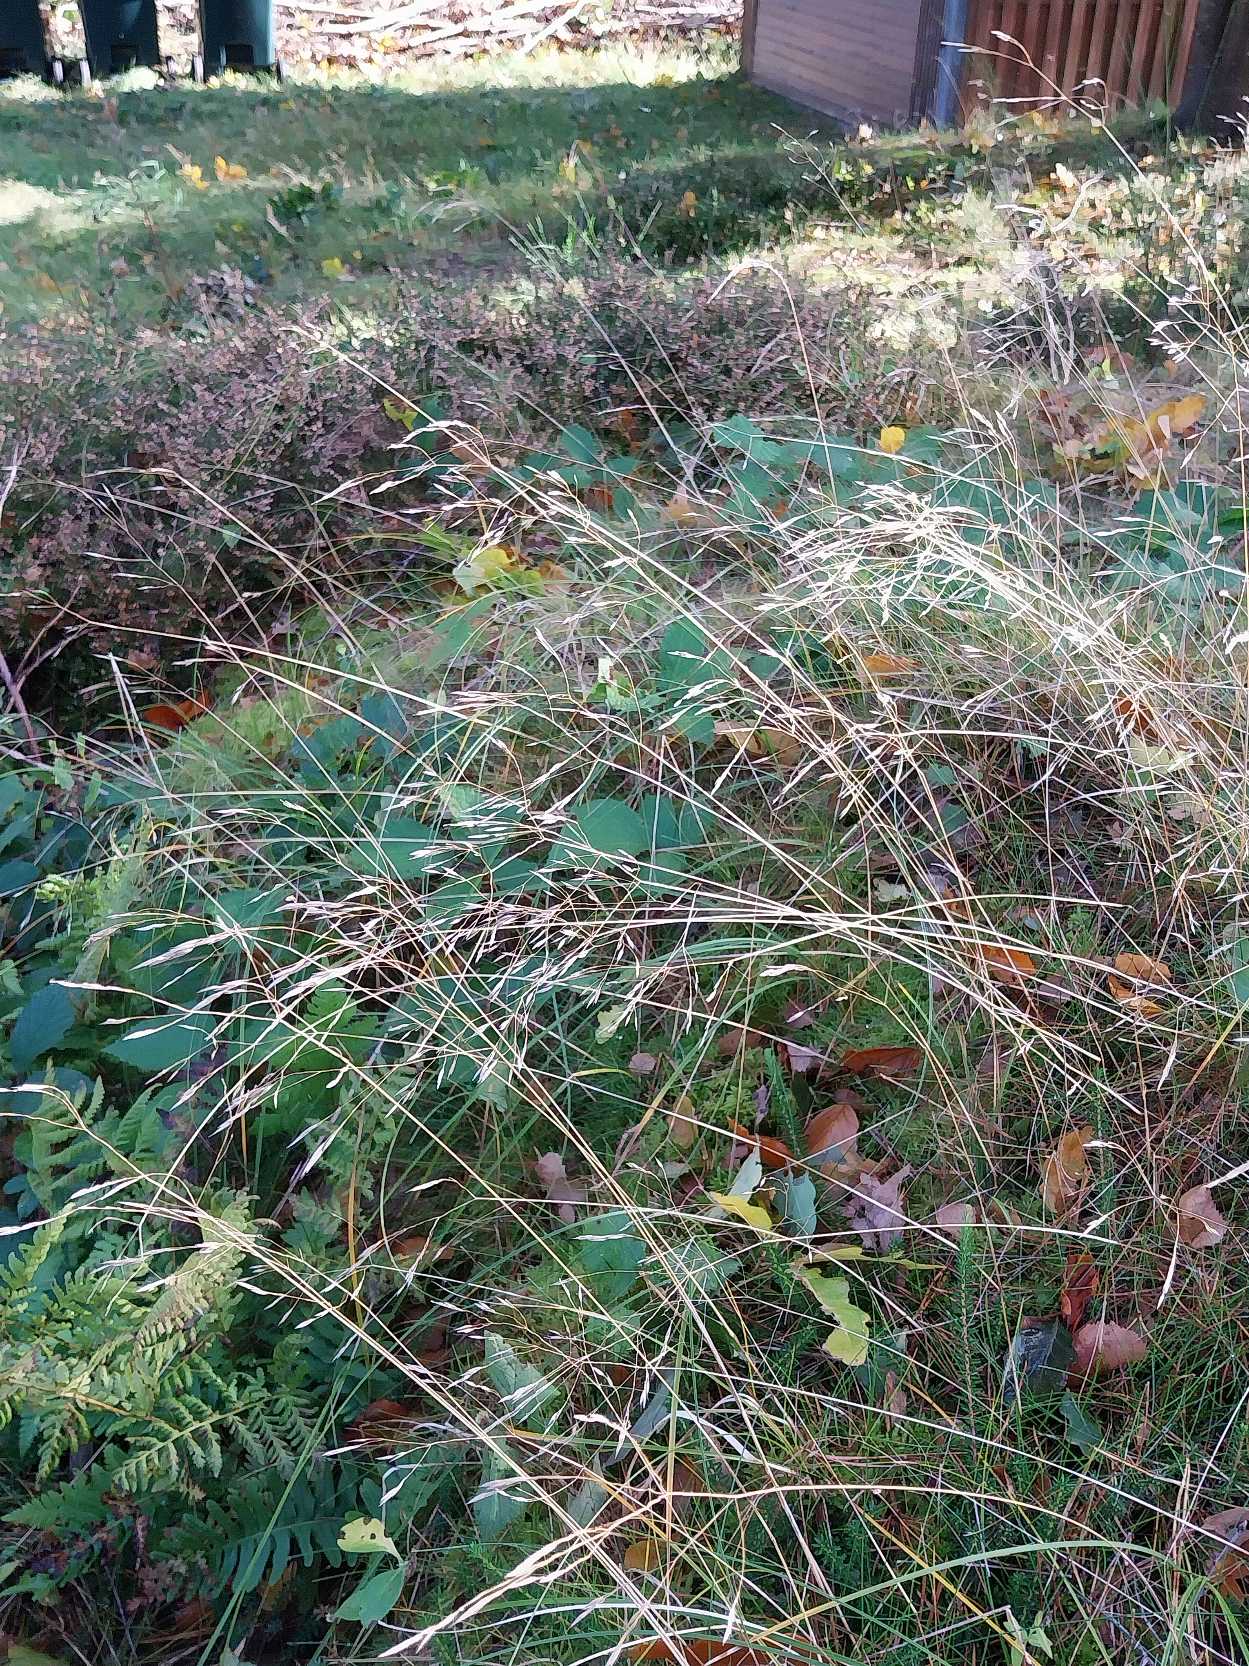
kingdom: Plantae
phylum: Tracheophyta
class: Liliopsida
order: Poales
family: Poaceae
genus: Avenella
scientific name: Avenella flexuosa
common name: Bølget bunke
